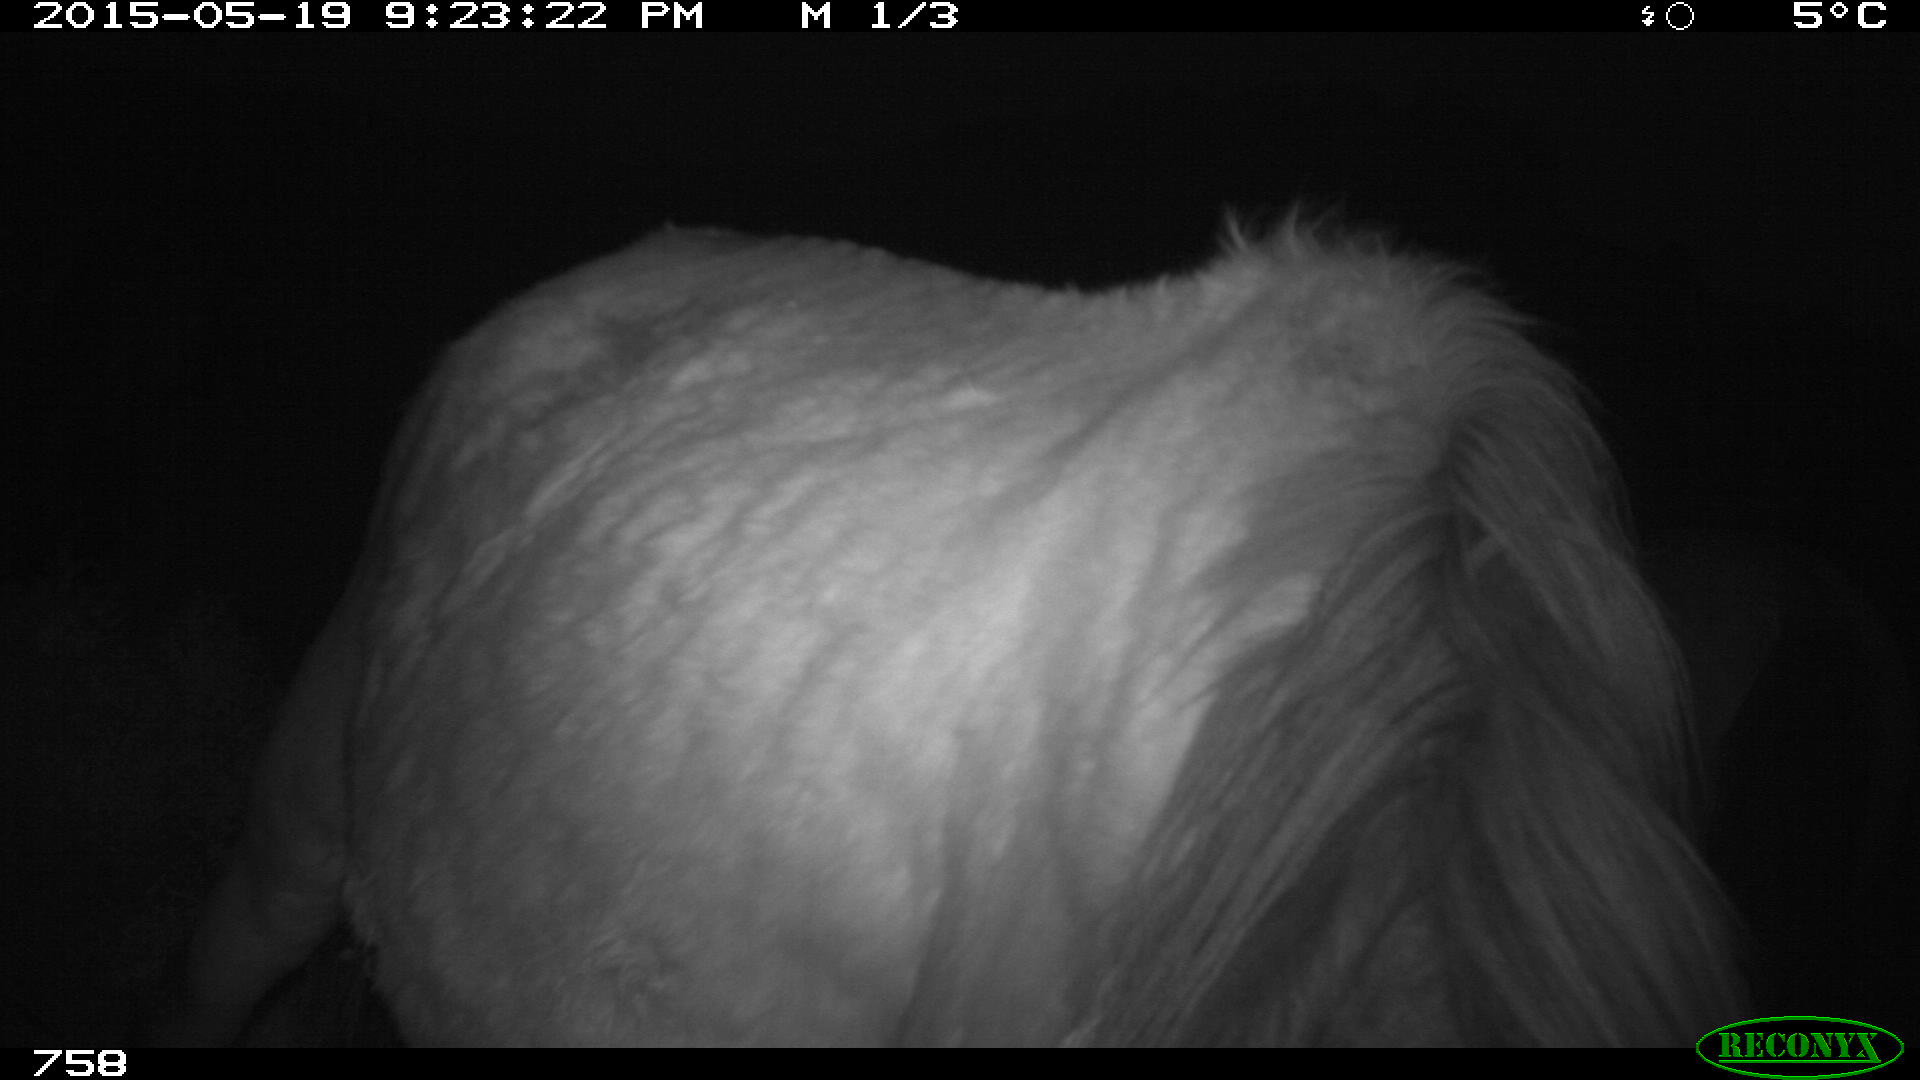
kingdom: Animalia
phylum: Chordata
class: Mammalia
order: Perissodactyla
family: Equidae
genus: Equus
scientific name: Equus caballus
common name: Horse
